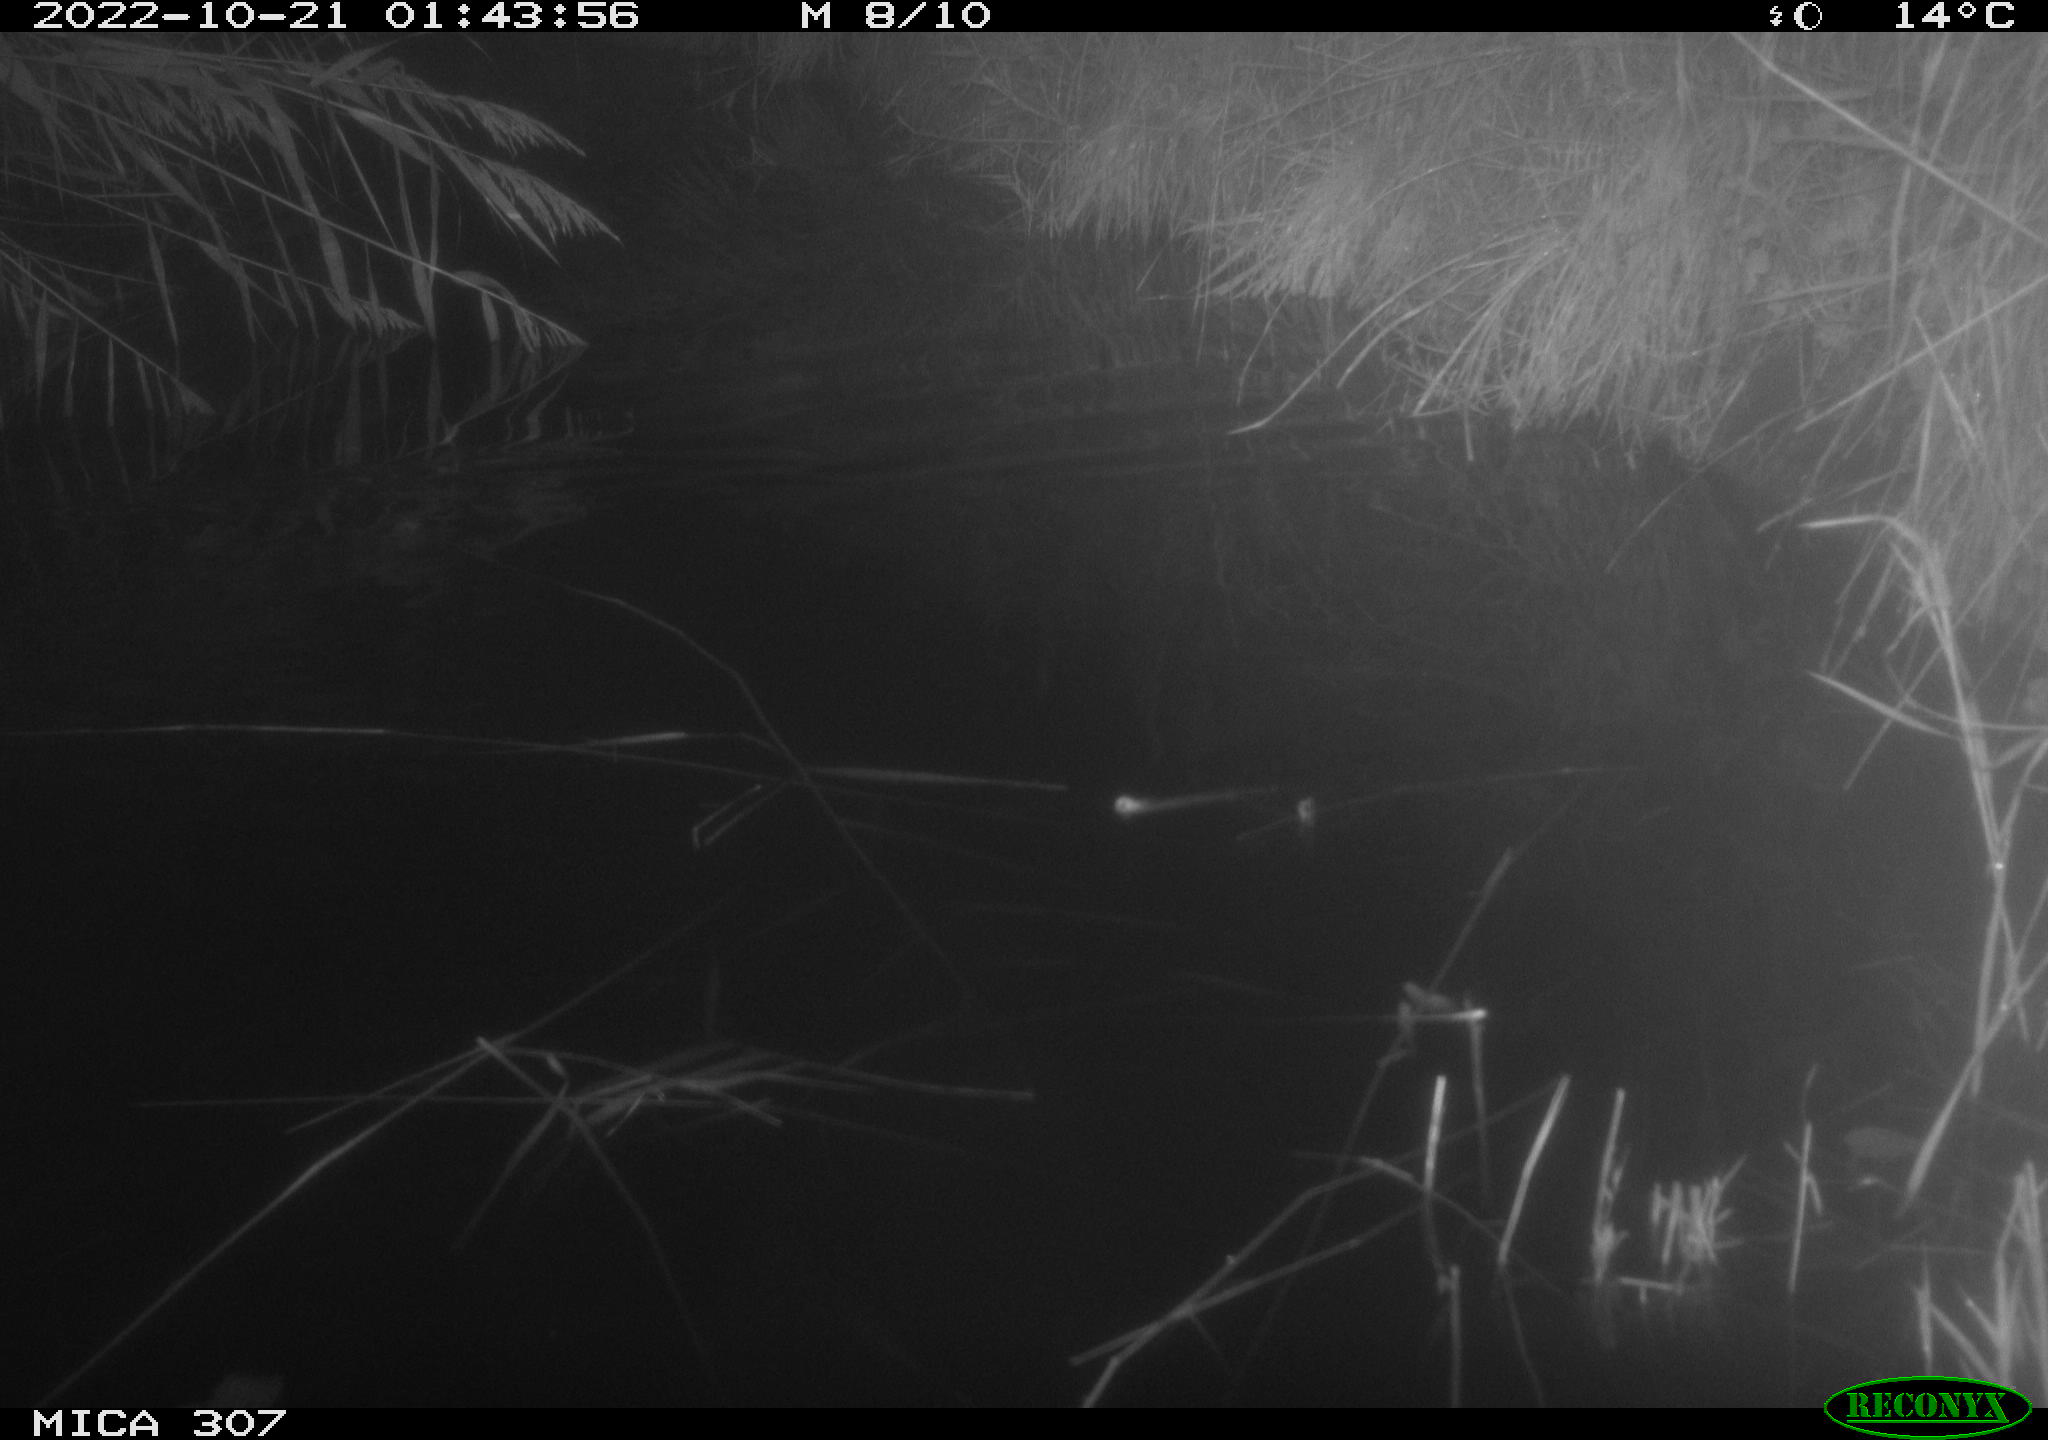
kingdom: Animalia
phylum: Chordata
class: Mammalia
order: Rodentia
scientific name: Rodentia
